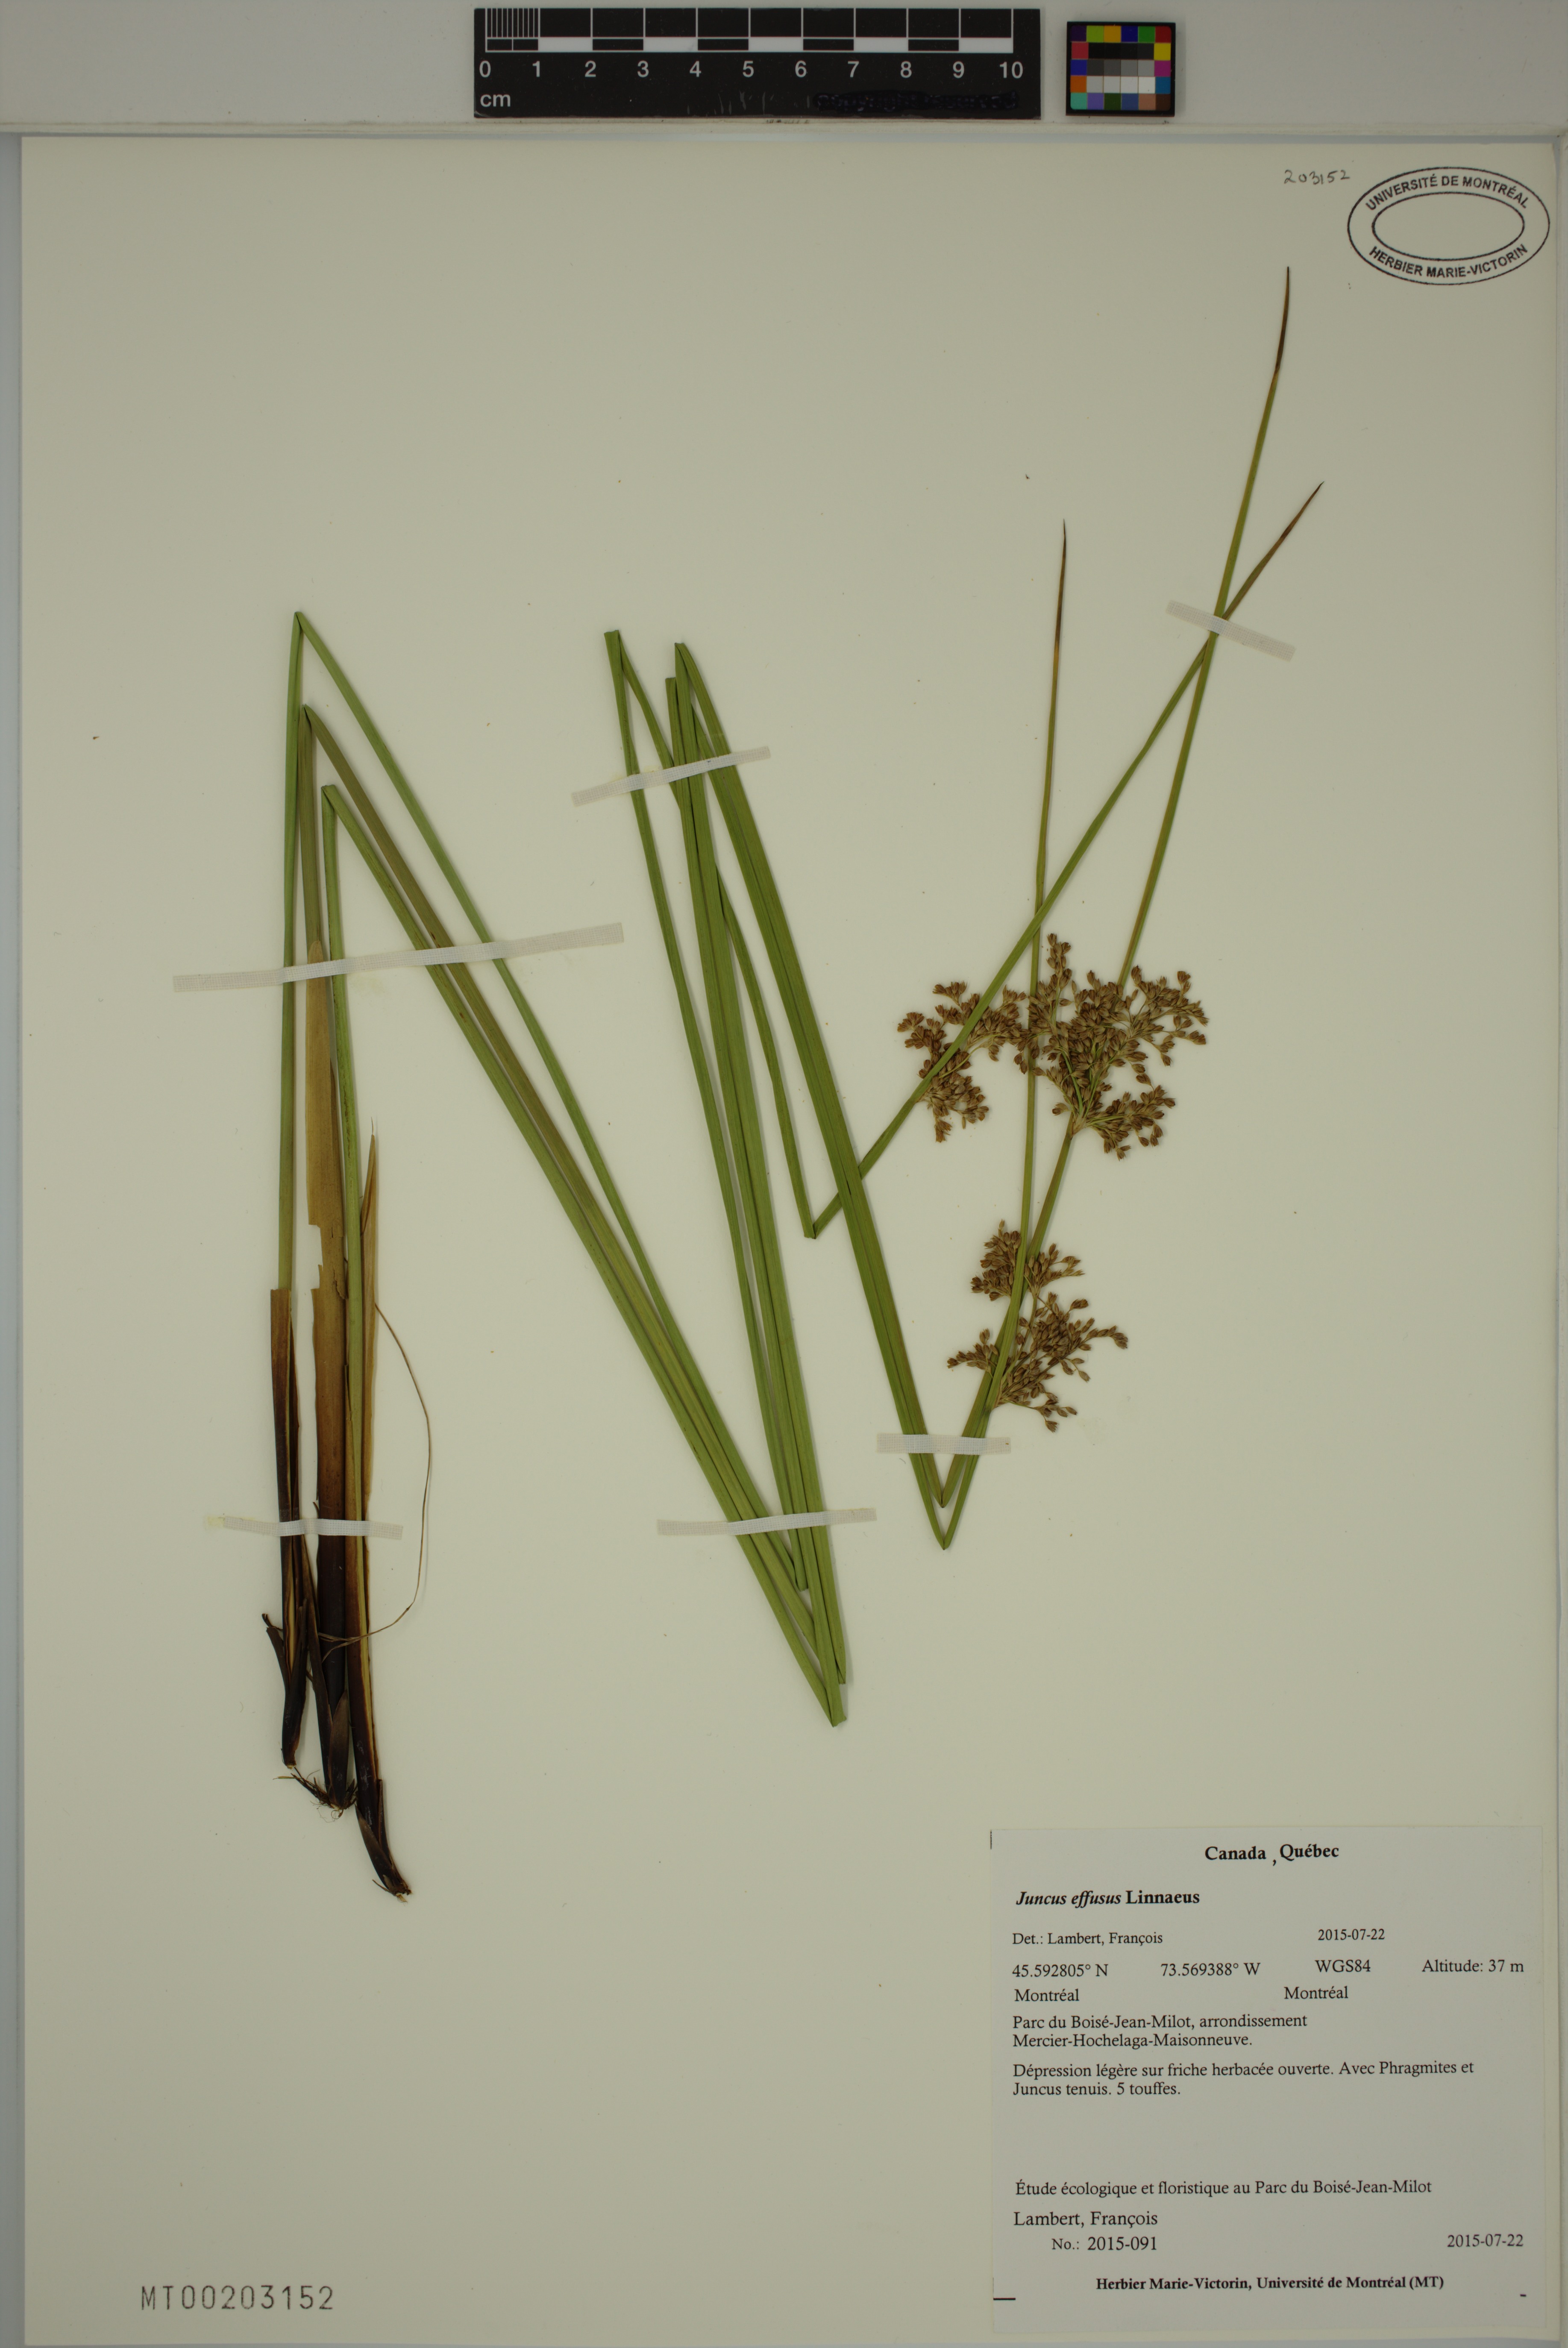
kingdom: Plantae
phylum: Tracheophyta
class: Liliopsida
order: Poales
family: Juncaceae
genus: Juncus
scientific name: Juncus effusus
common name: Soft rush
